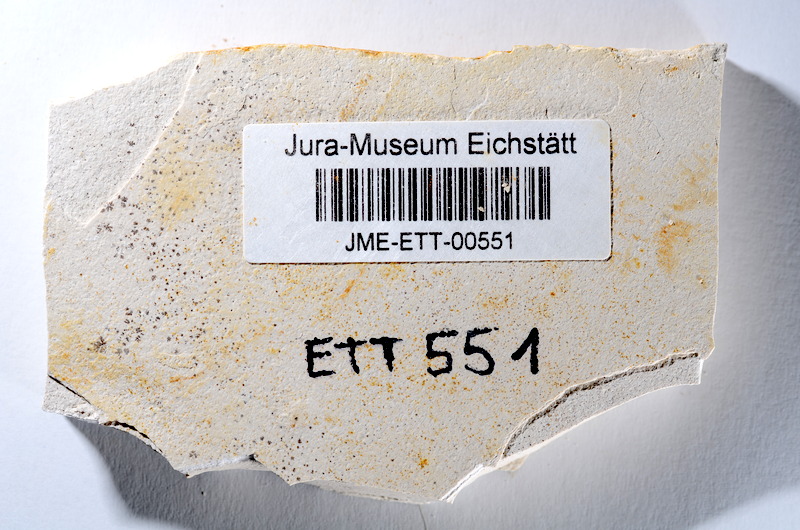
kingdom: Animalia
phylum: Chordata
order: Salmoniformes
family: Orthogonikleithridae
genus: Orthogonikleithrus
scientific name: Orthogonikleithrus hoelli
